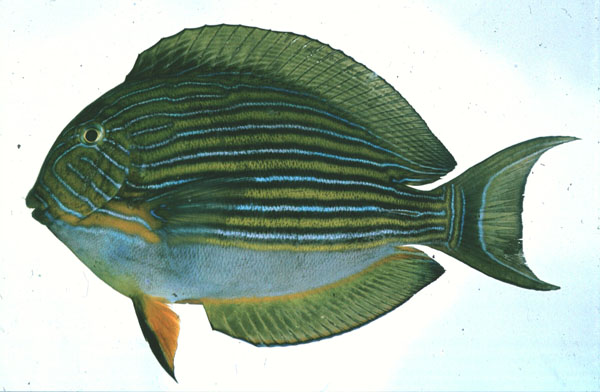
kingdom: Animalia
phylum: Chordata
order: Perciformes
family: Acanthuridae
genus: Acanthurus
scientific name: Acanthurus lineatus
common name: Striped surgeonfish
